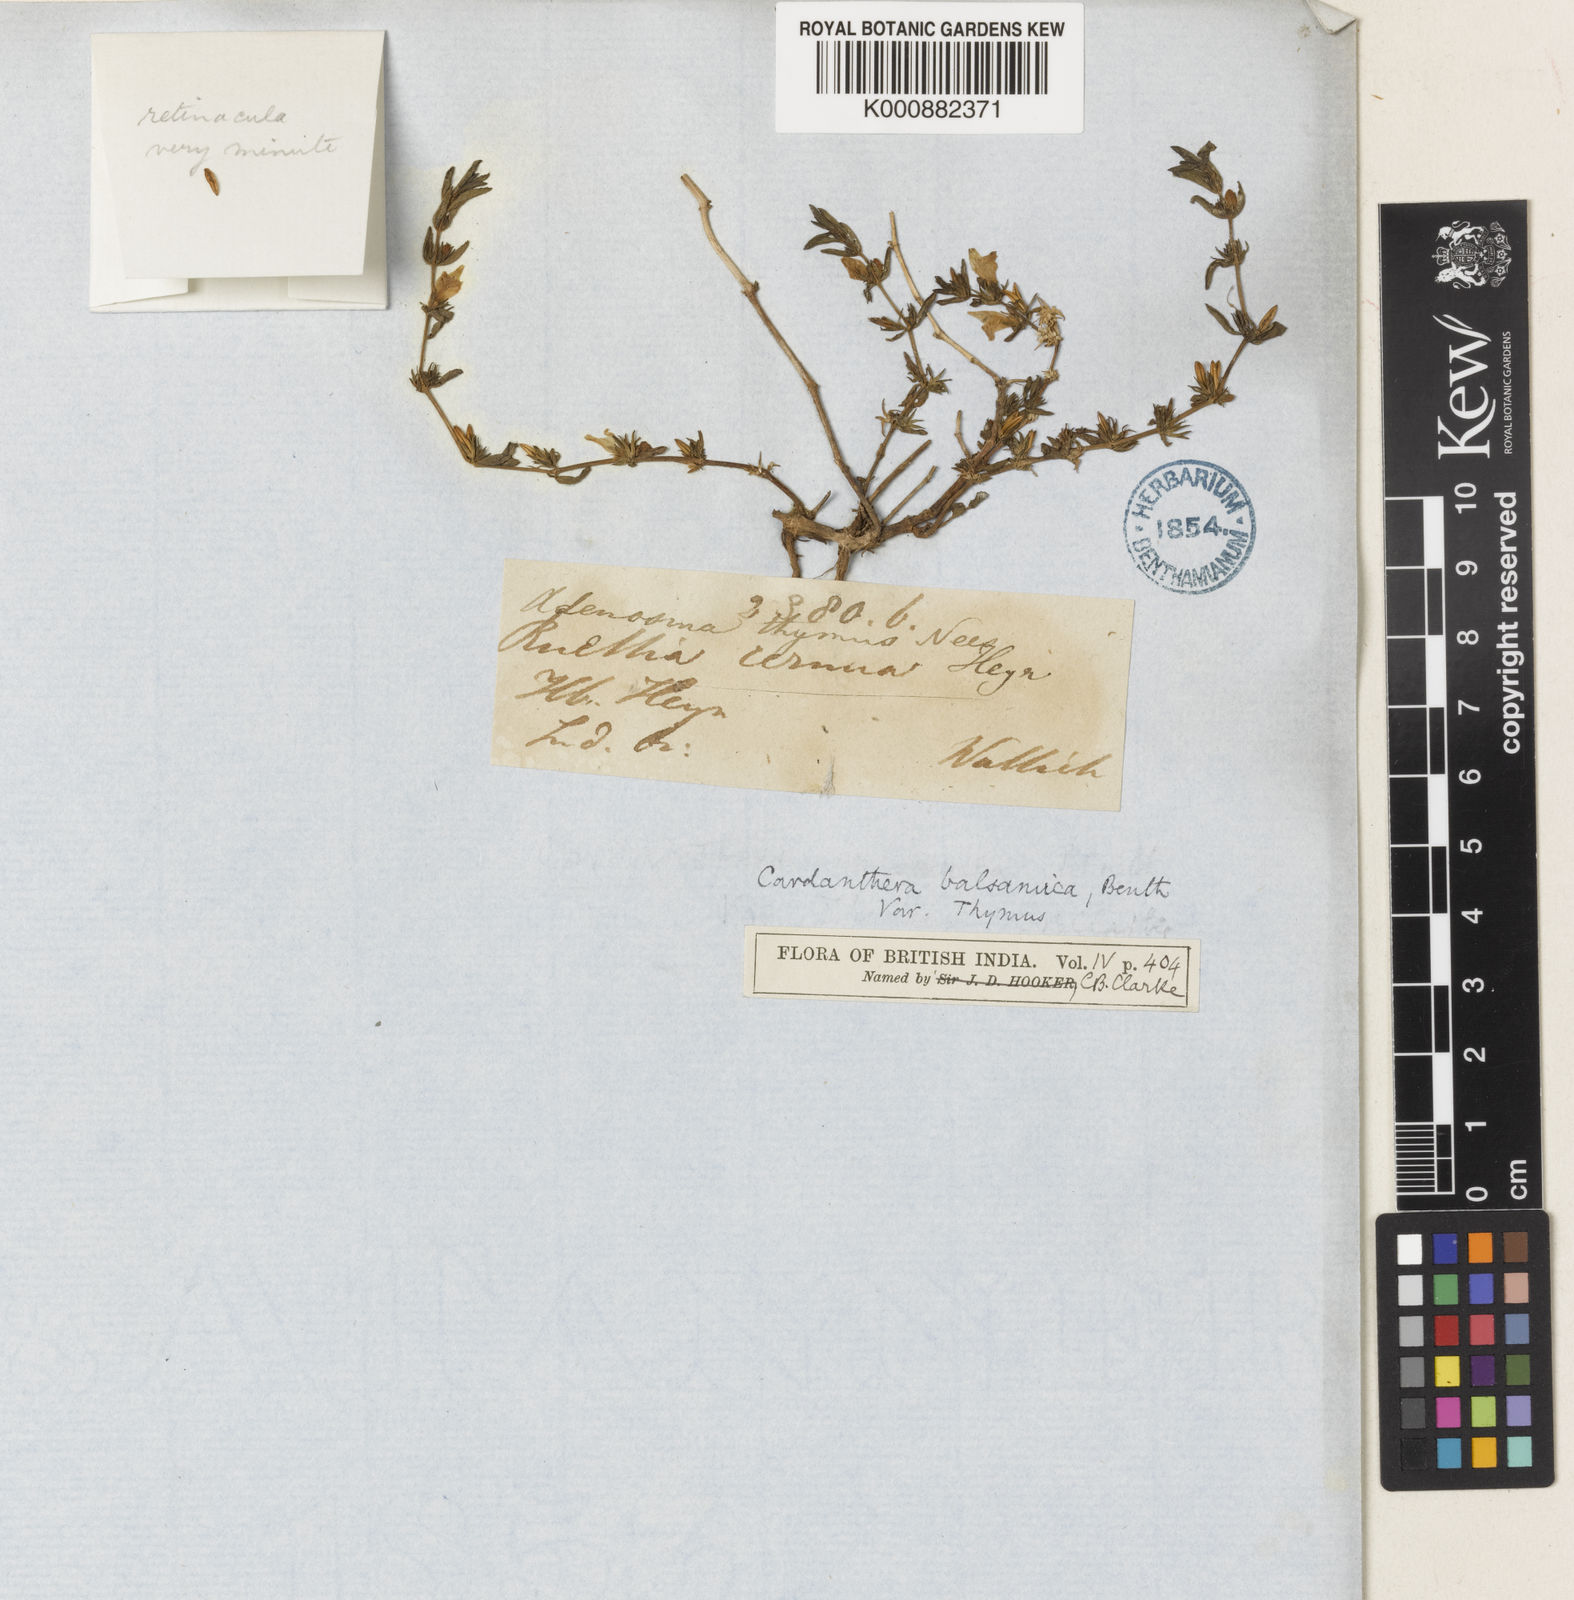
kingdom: Plantae
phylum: Tracheophyta
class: Magnoliopsida
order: Lamiales
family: Acanthaceae
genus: Hygrophila
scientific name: Hygrophila
